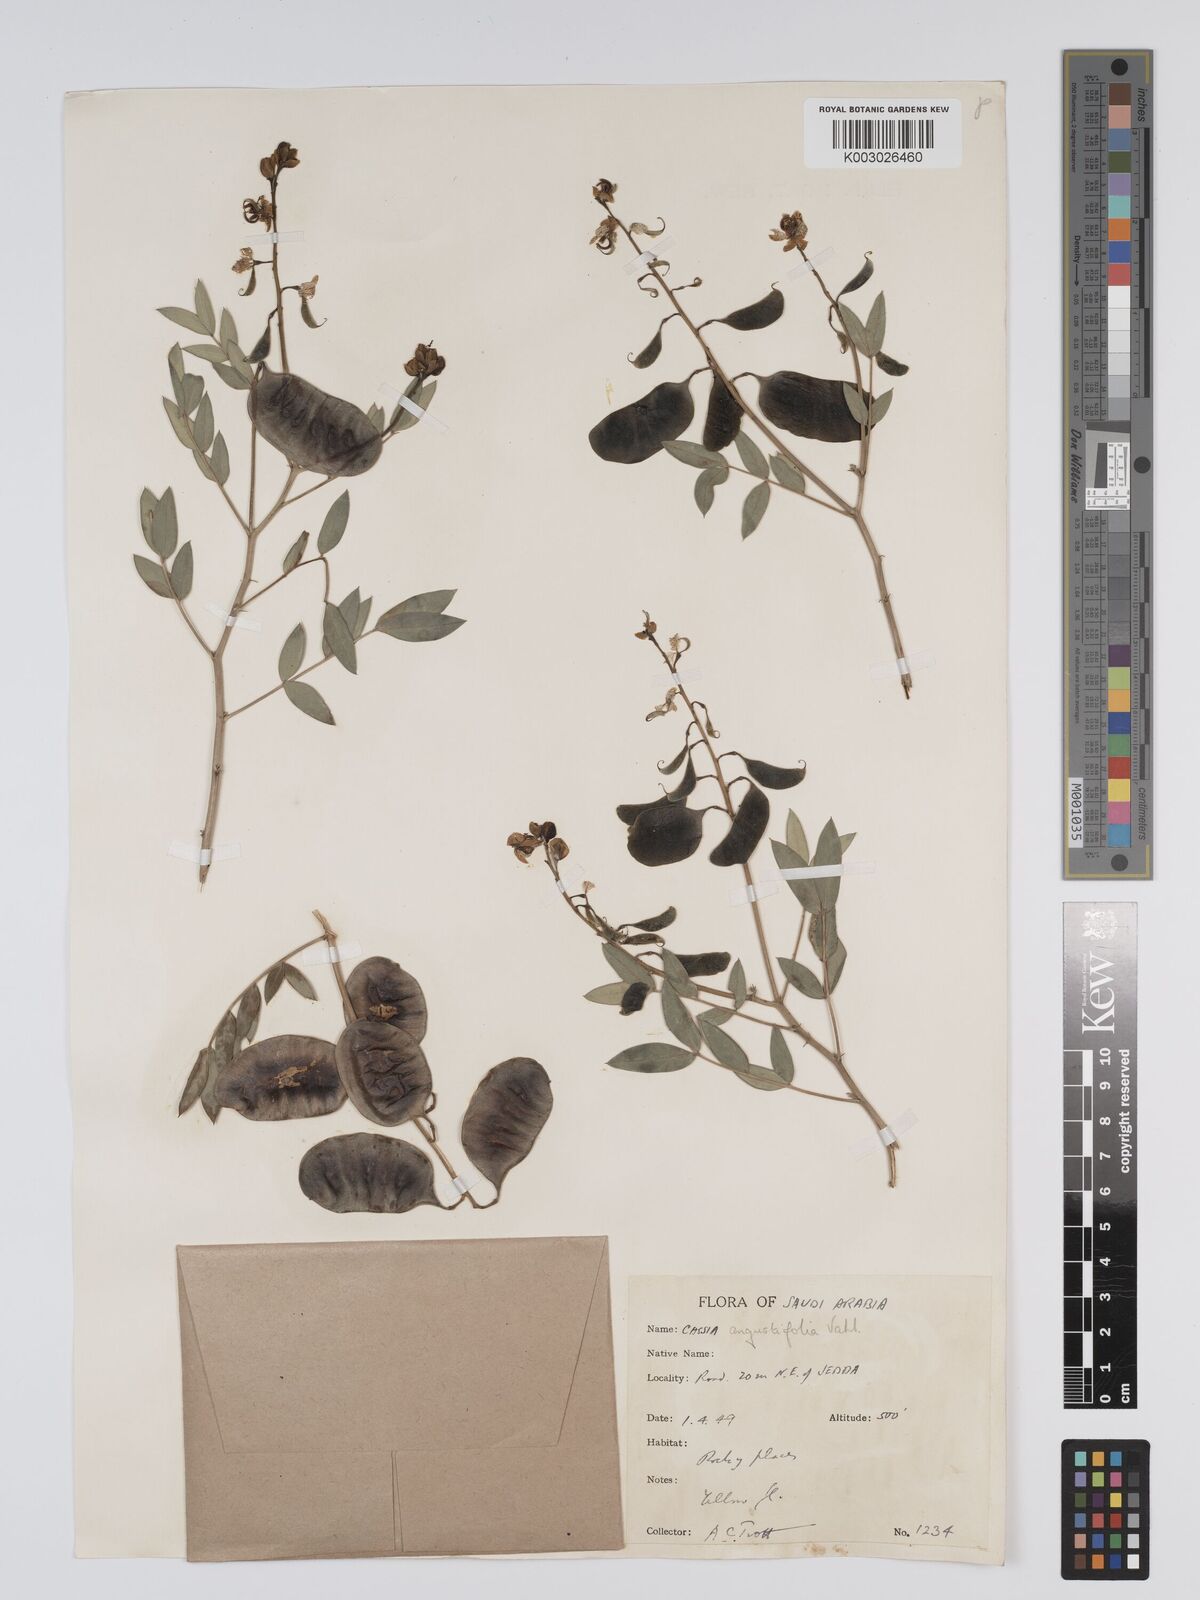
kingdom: Plantae
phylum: Tracheophyta
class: Magnoliopsida
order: Fabales
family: Fabaceae
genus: Senna
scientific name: Senna alexandrina
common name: True senna
